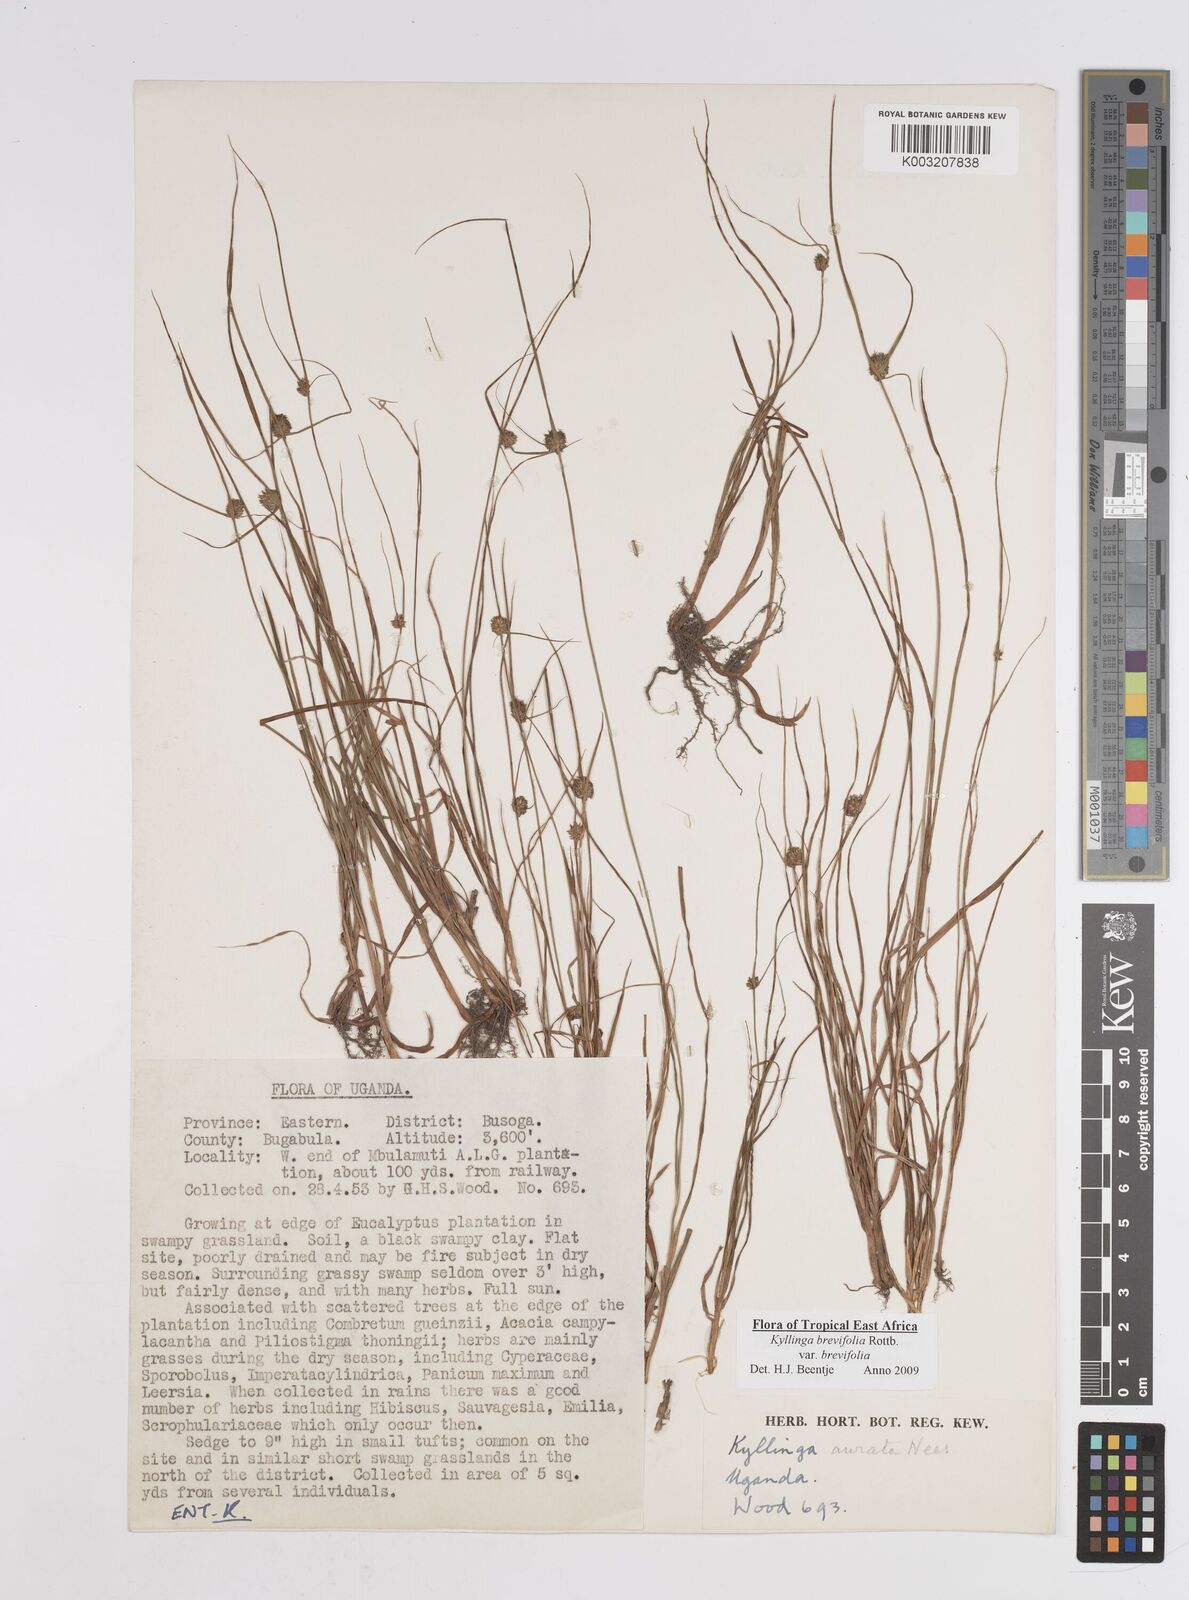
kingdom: Plantae
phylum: Tracheophyta
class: Liliopsida
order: Poales
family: Cyperaceae
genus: Cyperus
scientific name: Cyperus erectus
